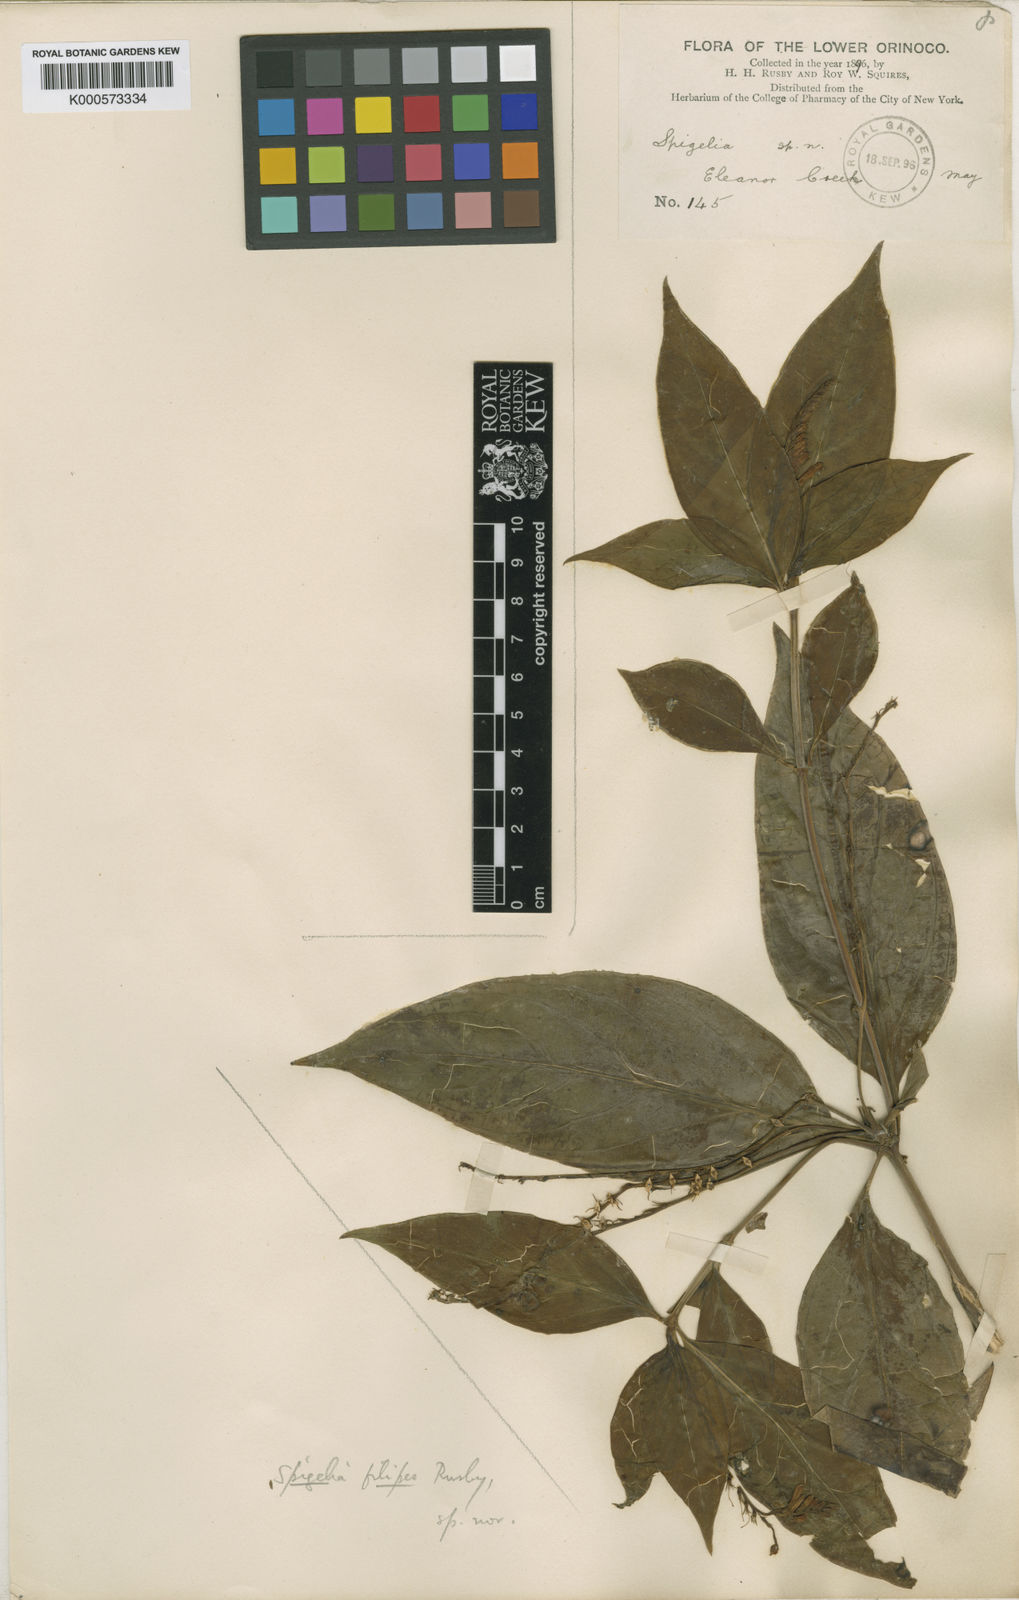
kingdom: Plantae
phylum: Tracheophyta
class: Magnoliopsida
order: Gentianales
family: Loganiaceae
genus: Spigelia
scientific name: Spigelia hamellioides
